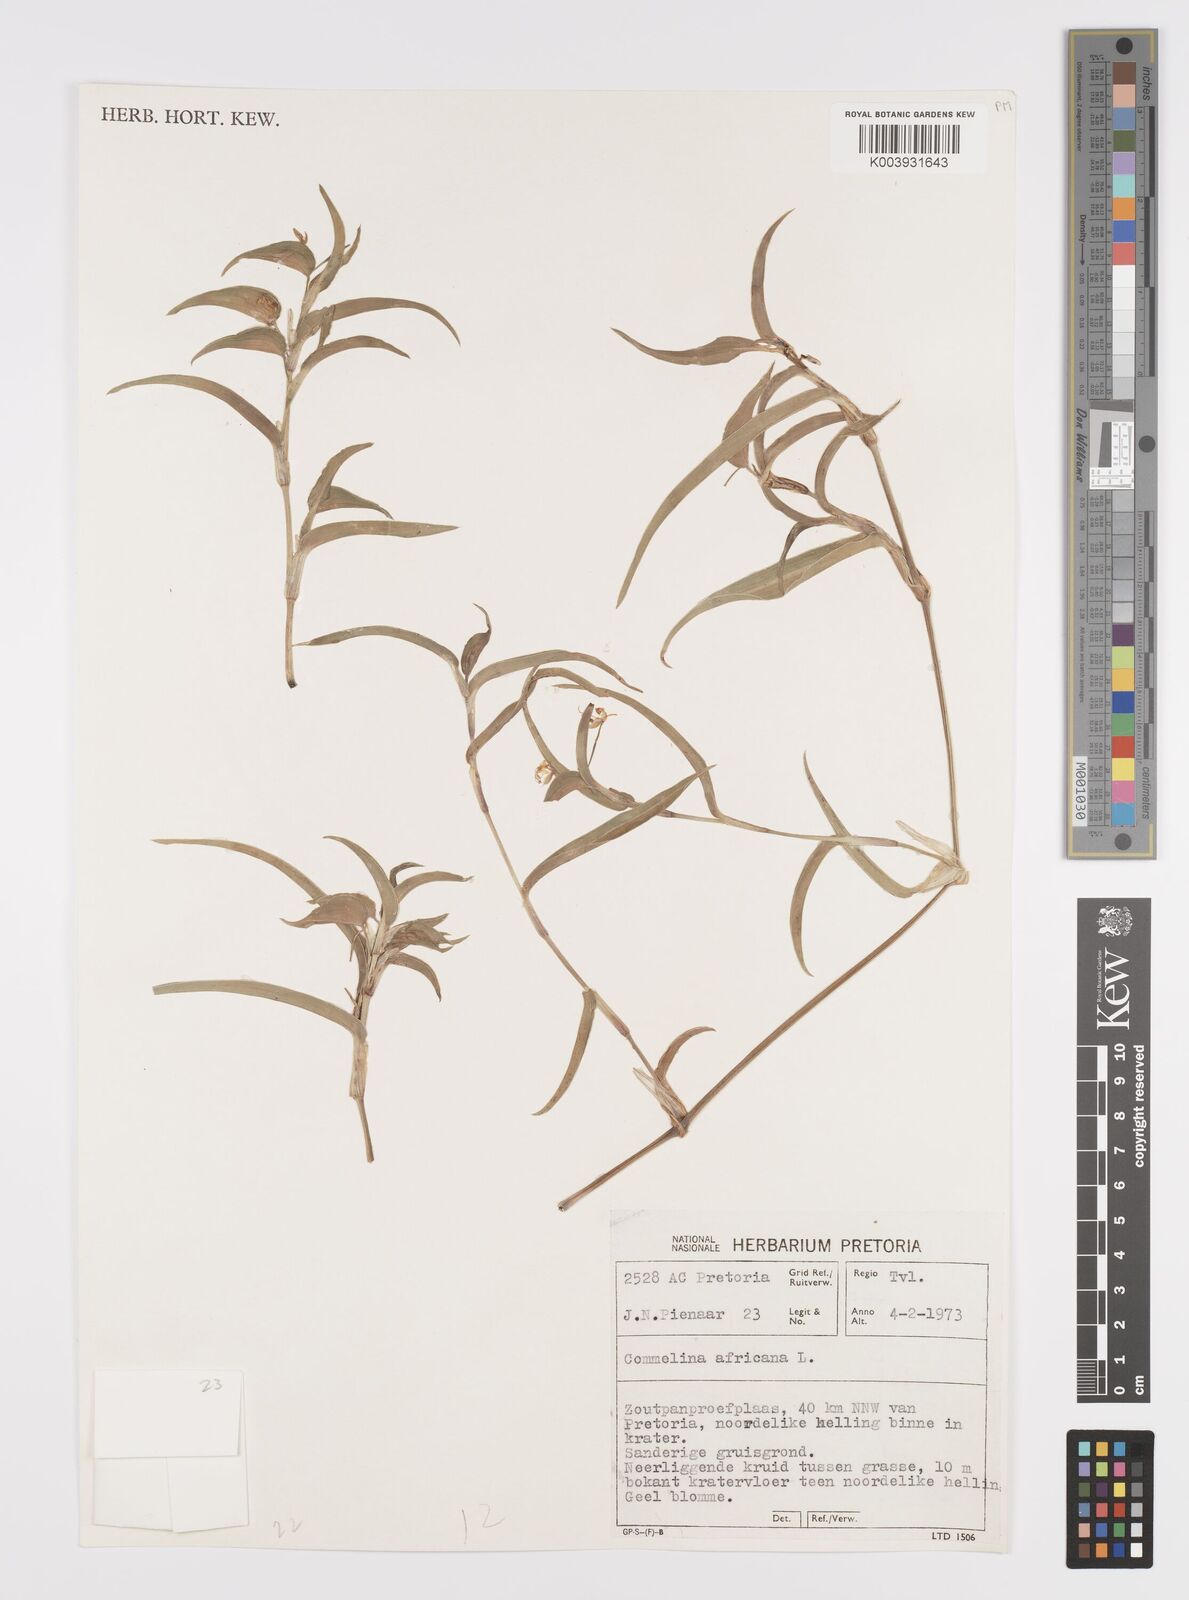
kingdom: Plantae
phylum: Tracheophyta
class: Liliopsida
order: Commelinales
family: Commelinaceae
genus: Commelina
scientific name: Commelina africana
